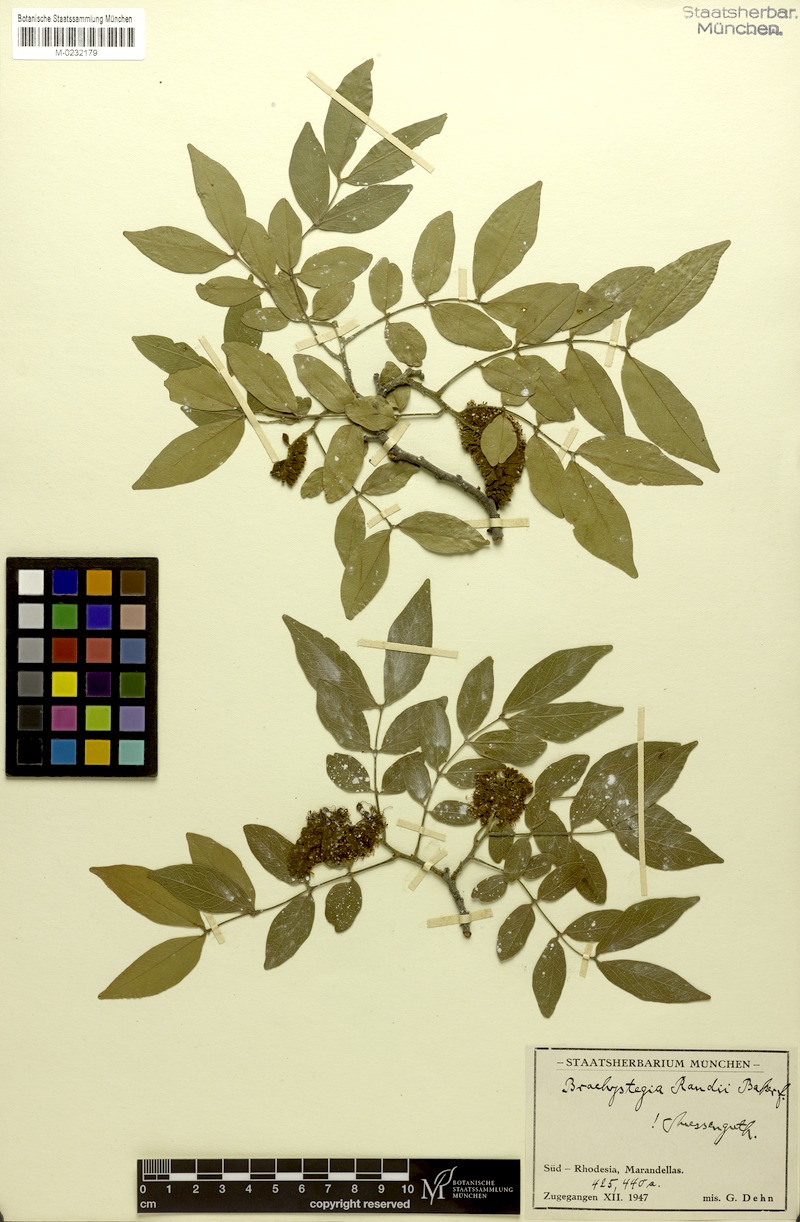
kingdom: Plantae
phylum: Tracheophyta
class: Magnoliopsida
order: Fabales
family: Fabaceae
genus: Brachystegia
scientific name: Brachystegia spiciformis
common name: Zebrawood
